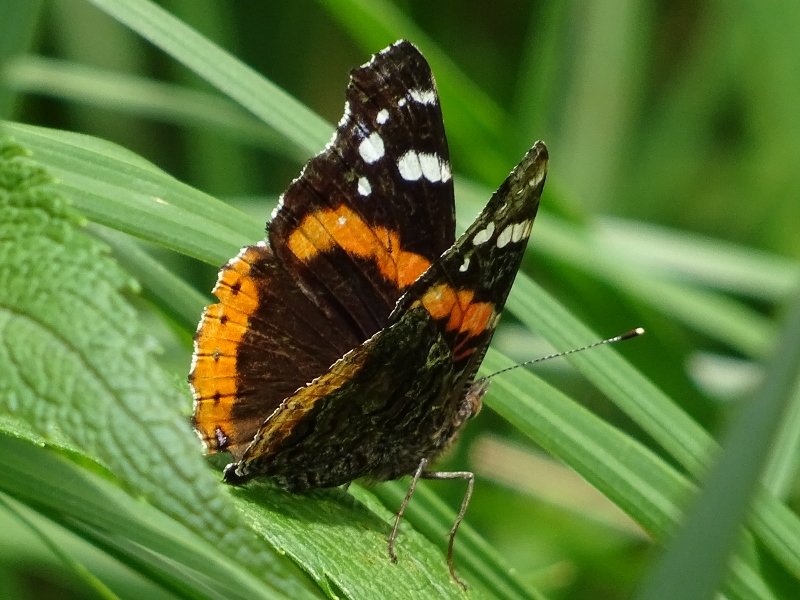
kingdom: Animalia
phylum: Arthropoda
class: Insecta
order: Lepidoptera
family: Nymphalidae
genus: Vanessa
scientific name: Vanessa atalanta
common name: Red Admiral
